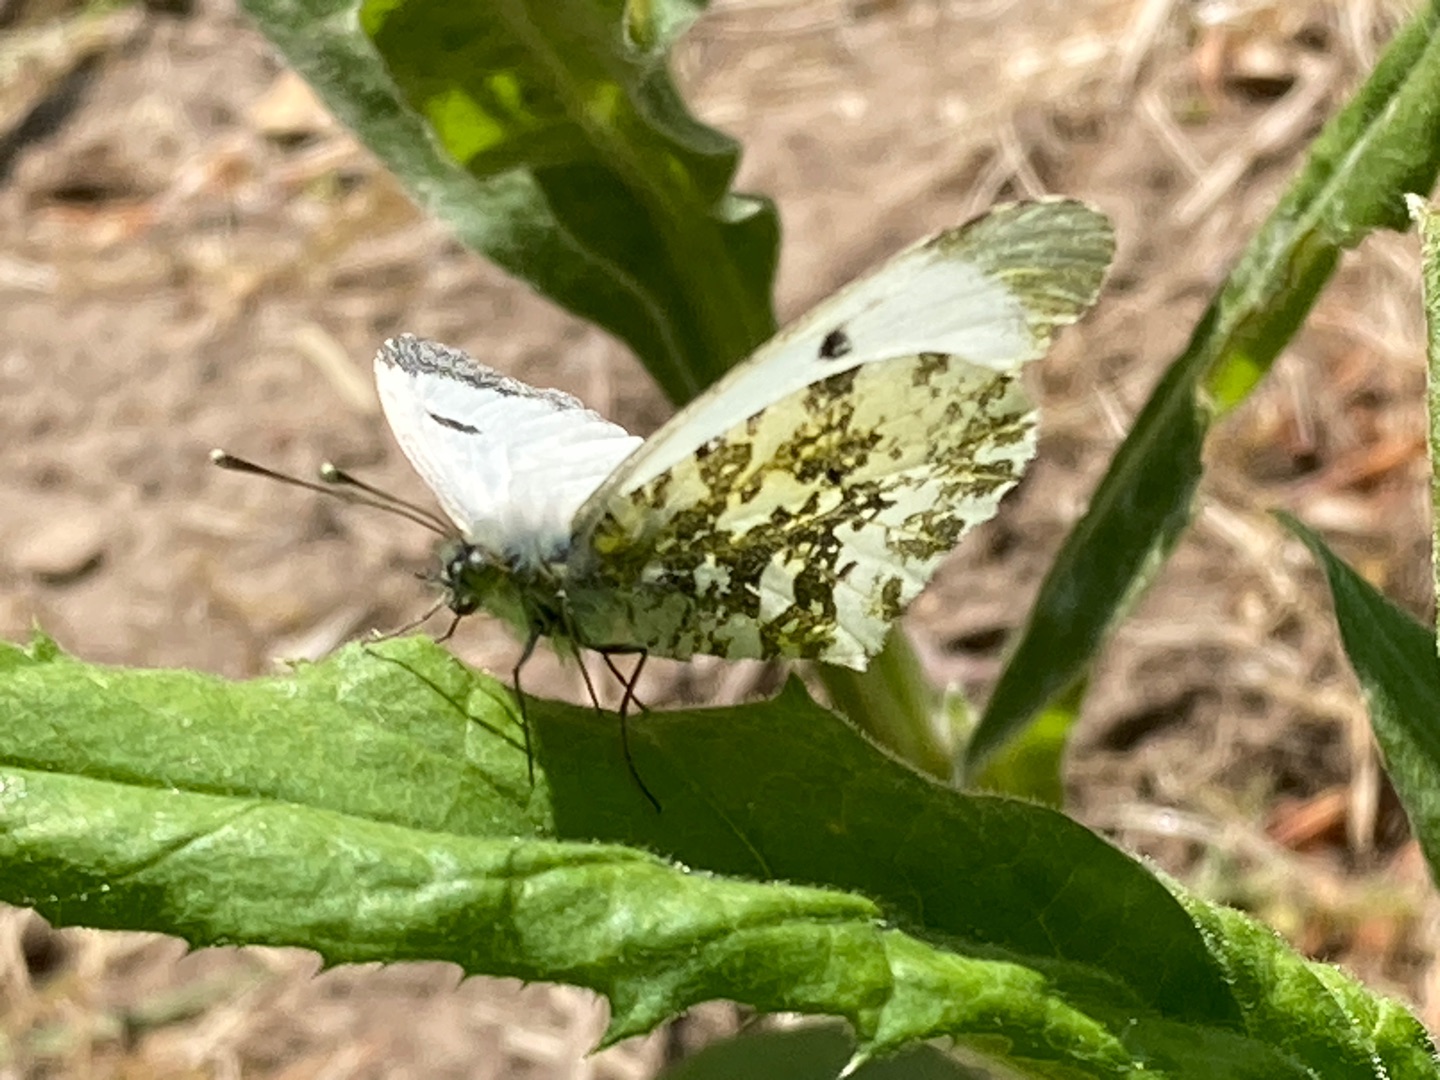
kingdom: Animalia
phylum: Arthropoda
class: Insecta
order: Lepidoptera
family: Pieridae
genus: Anthocharis
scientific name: Anthocharis cardamines
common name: Aurora
